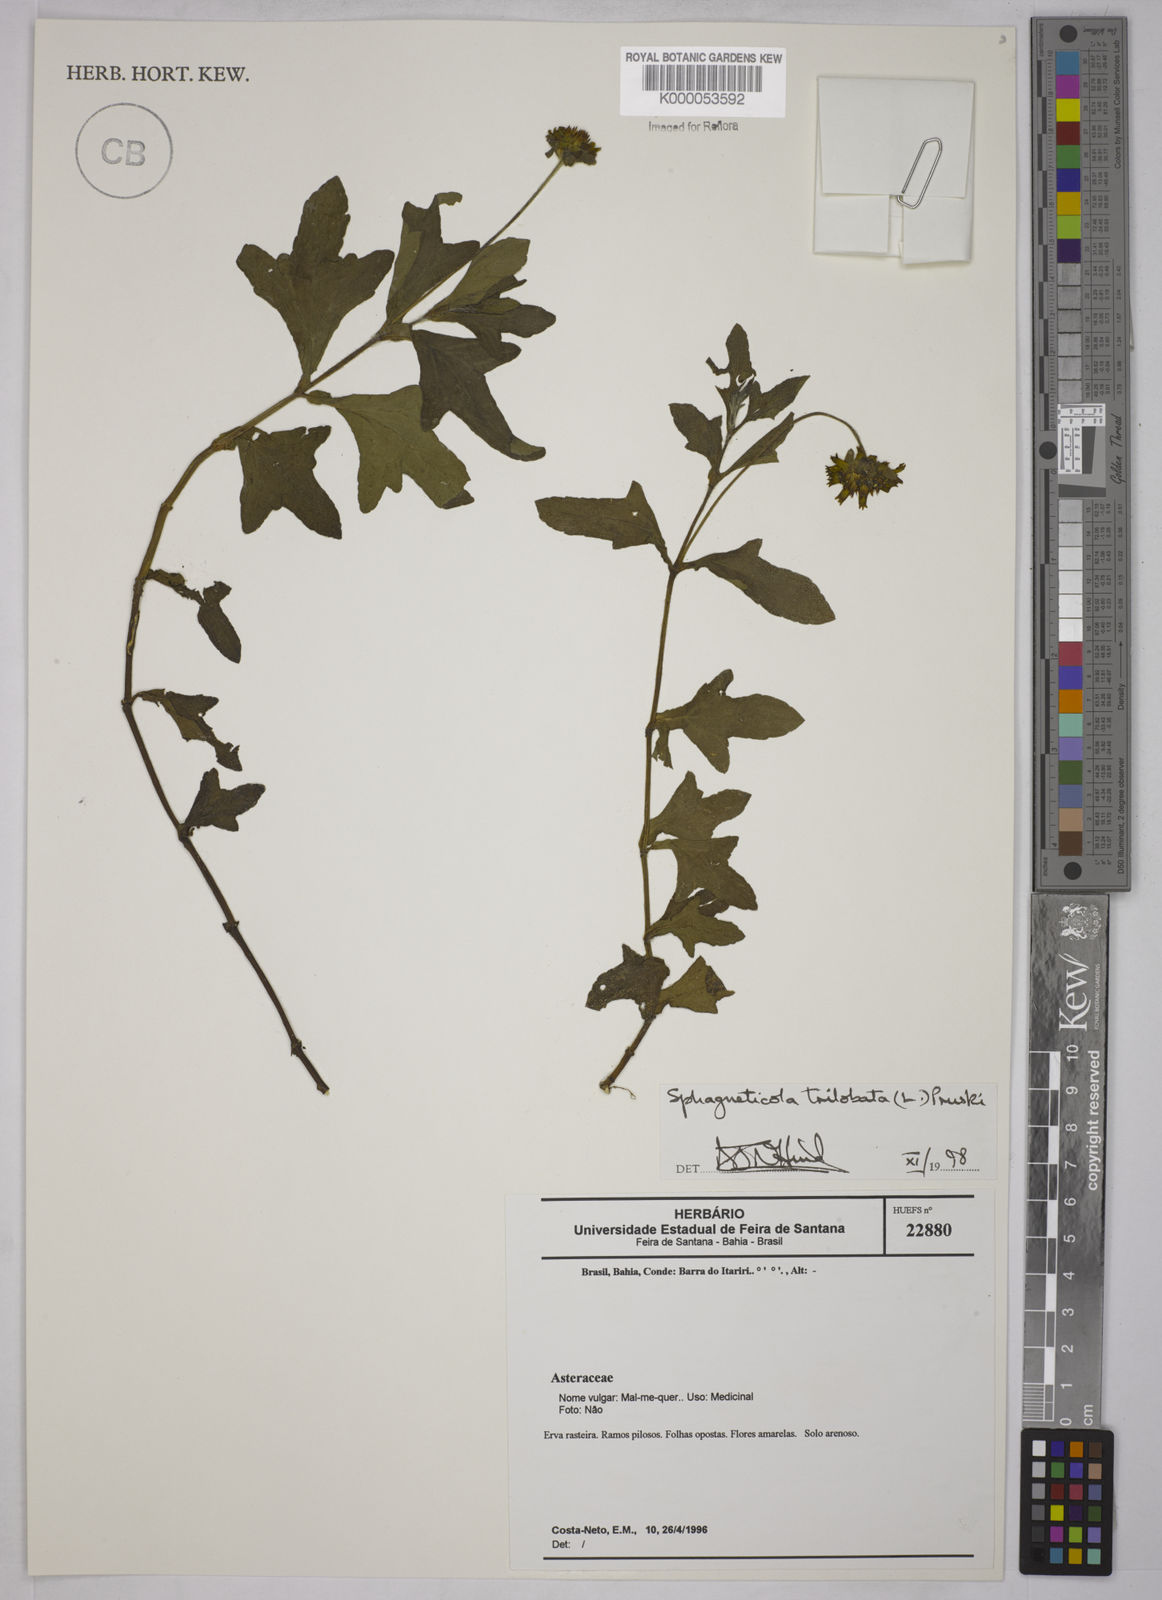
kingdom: Plantae
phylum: Tracheophyta
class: Magnoliopsida
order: Asterales
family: Asteraceae
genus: Sphagneticola
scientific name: Sphagneticola trilobata
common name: Bay biscayne creeping-oxeye
